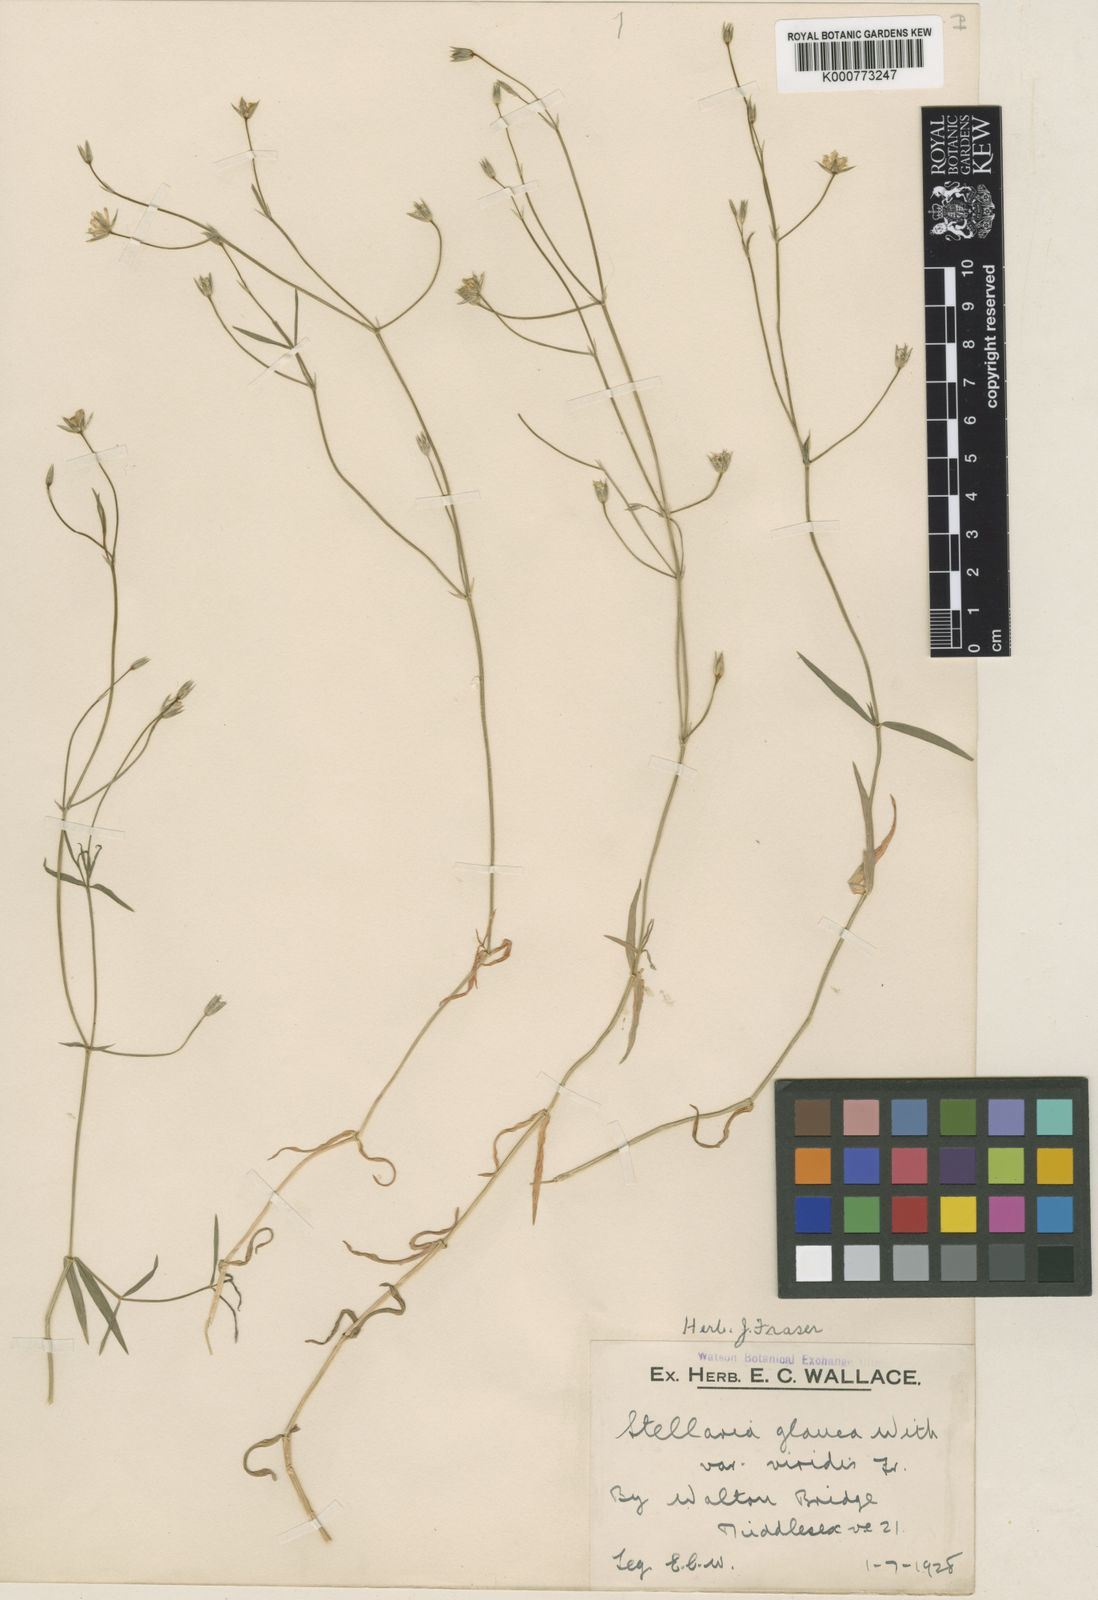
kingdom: Plantae
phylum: Tracheophyta
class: Magnoliopsida
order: Caryophyllales
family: Caryophyllaceae
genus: Stellaria
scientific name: Stellaria
